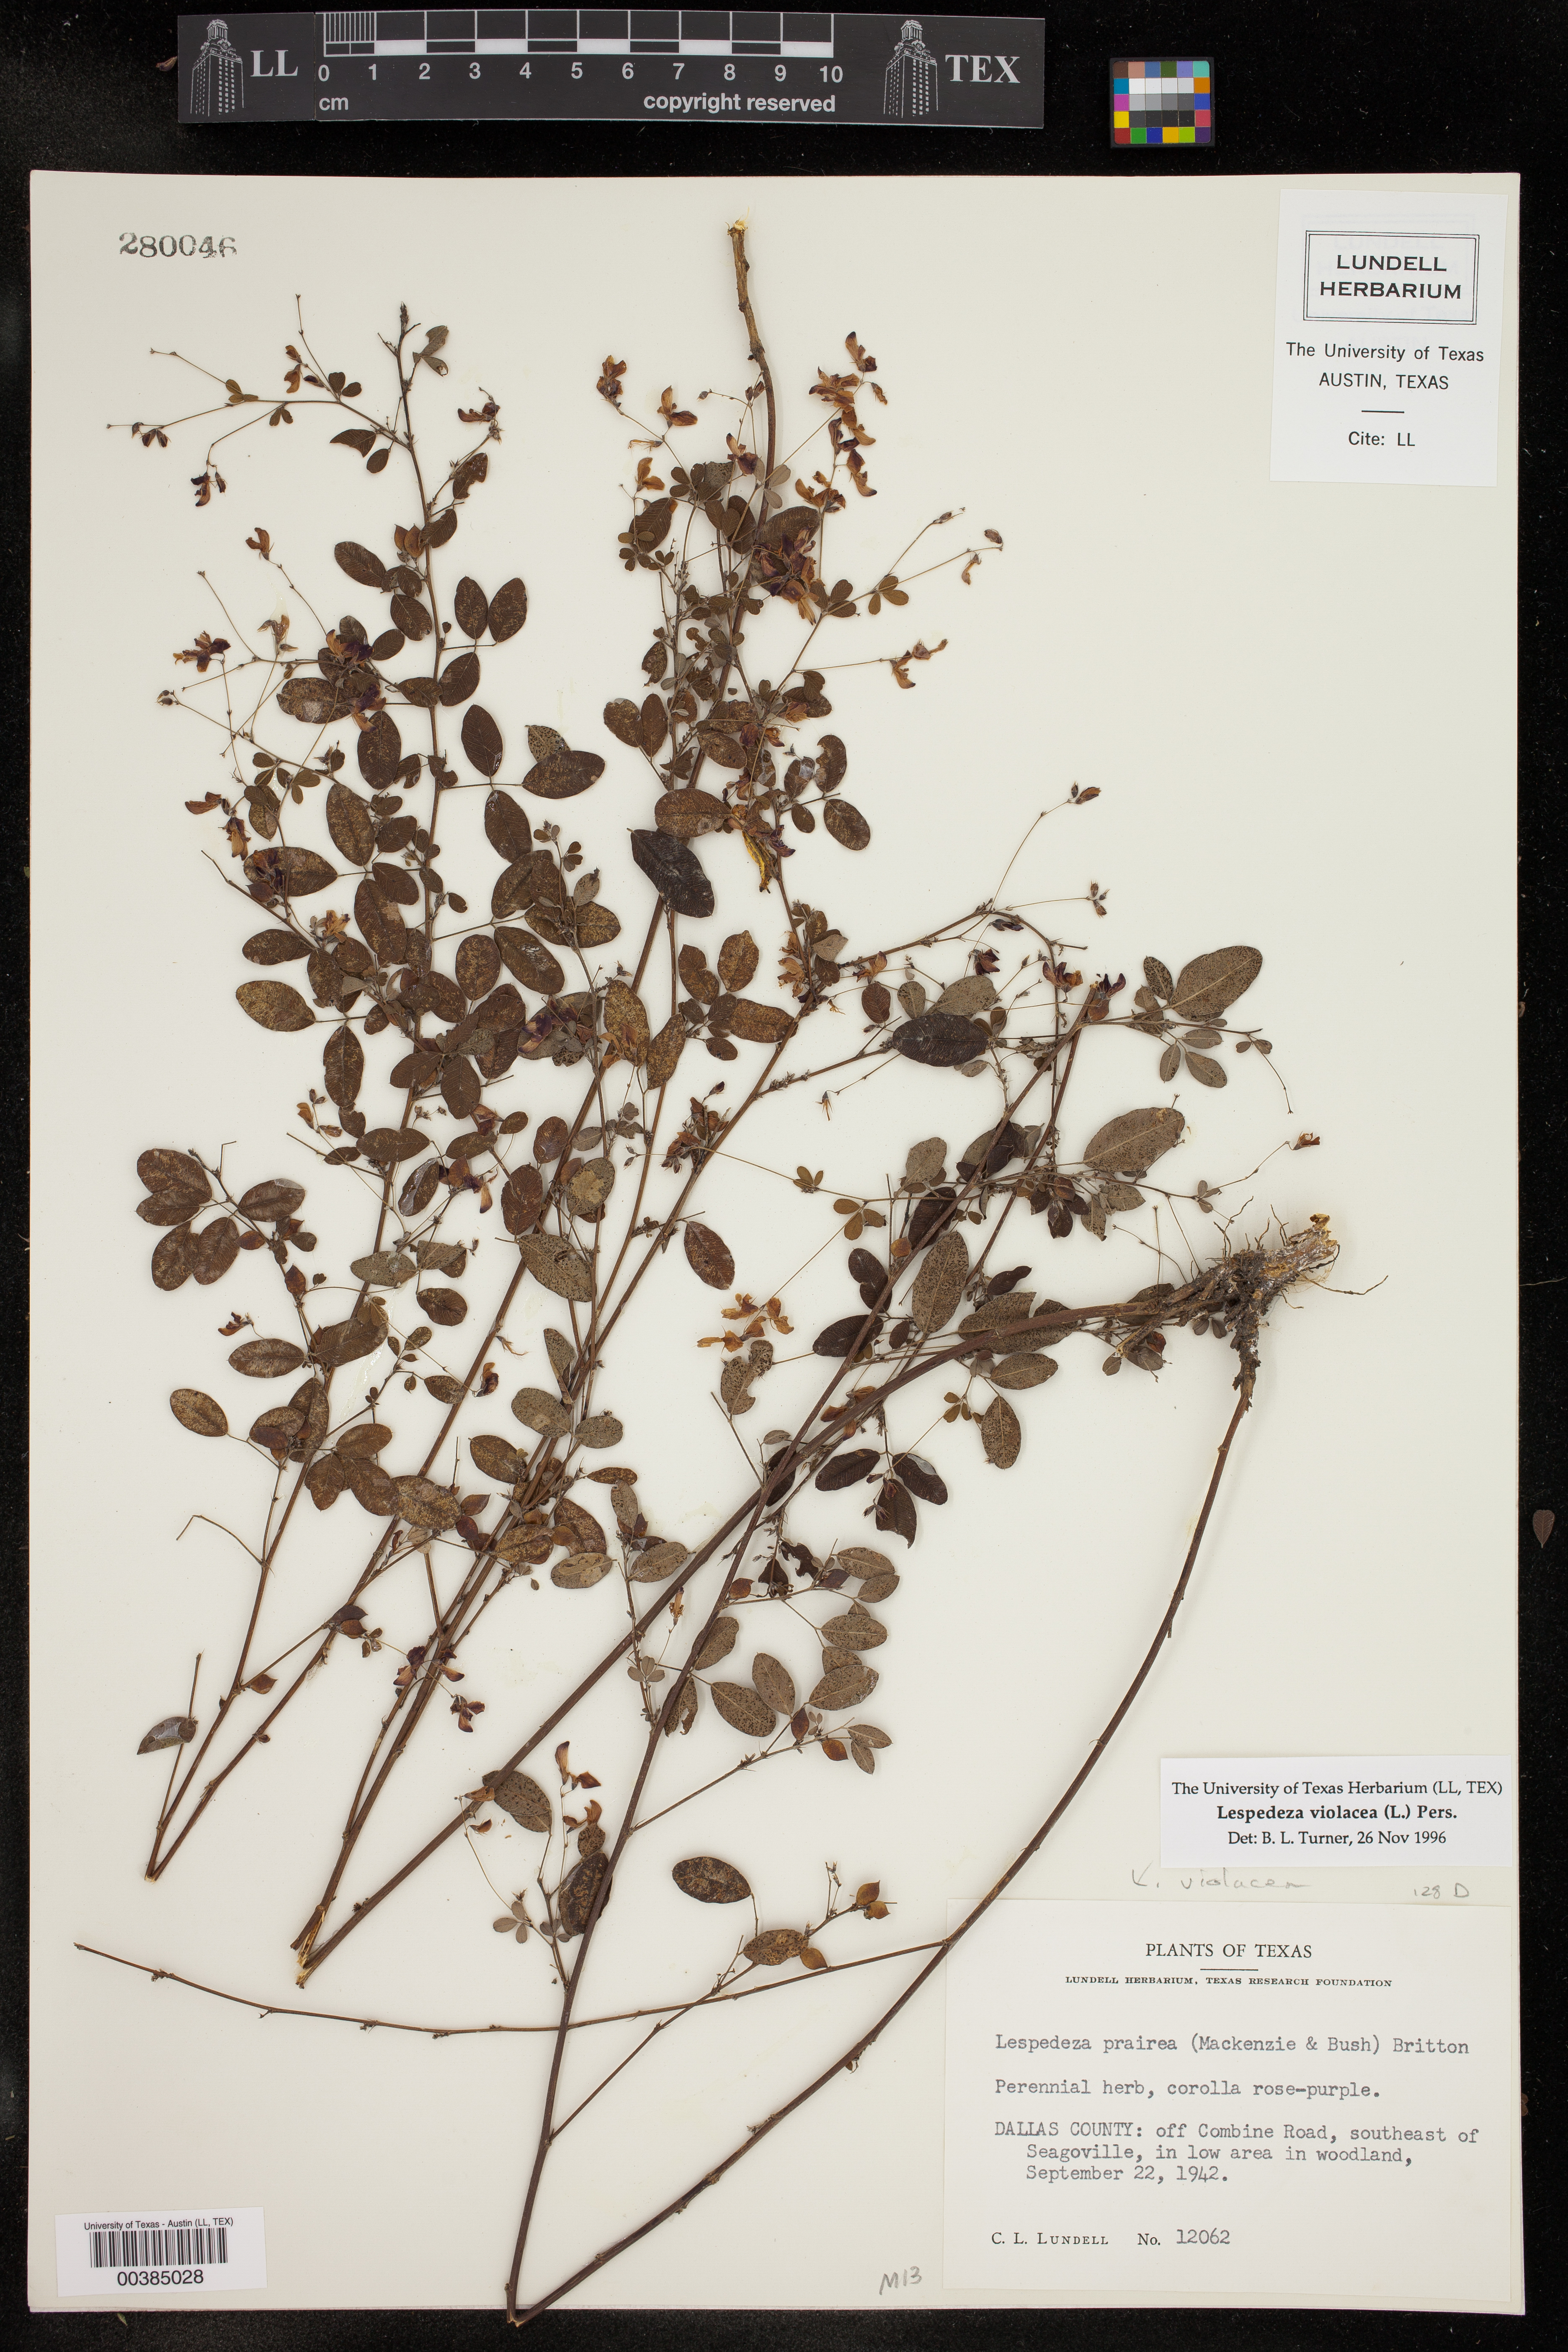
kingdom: Plantae
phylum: Tracheophyta
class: Magnoliopsida
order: Fabales
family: Fabaceae
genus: Lespedeza
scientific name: Lespedeza violacea
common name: Wand bush-clover
